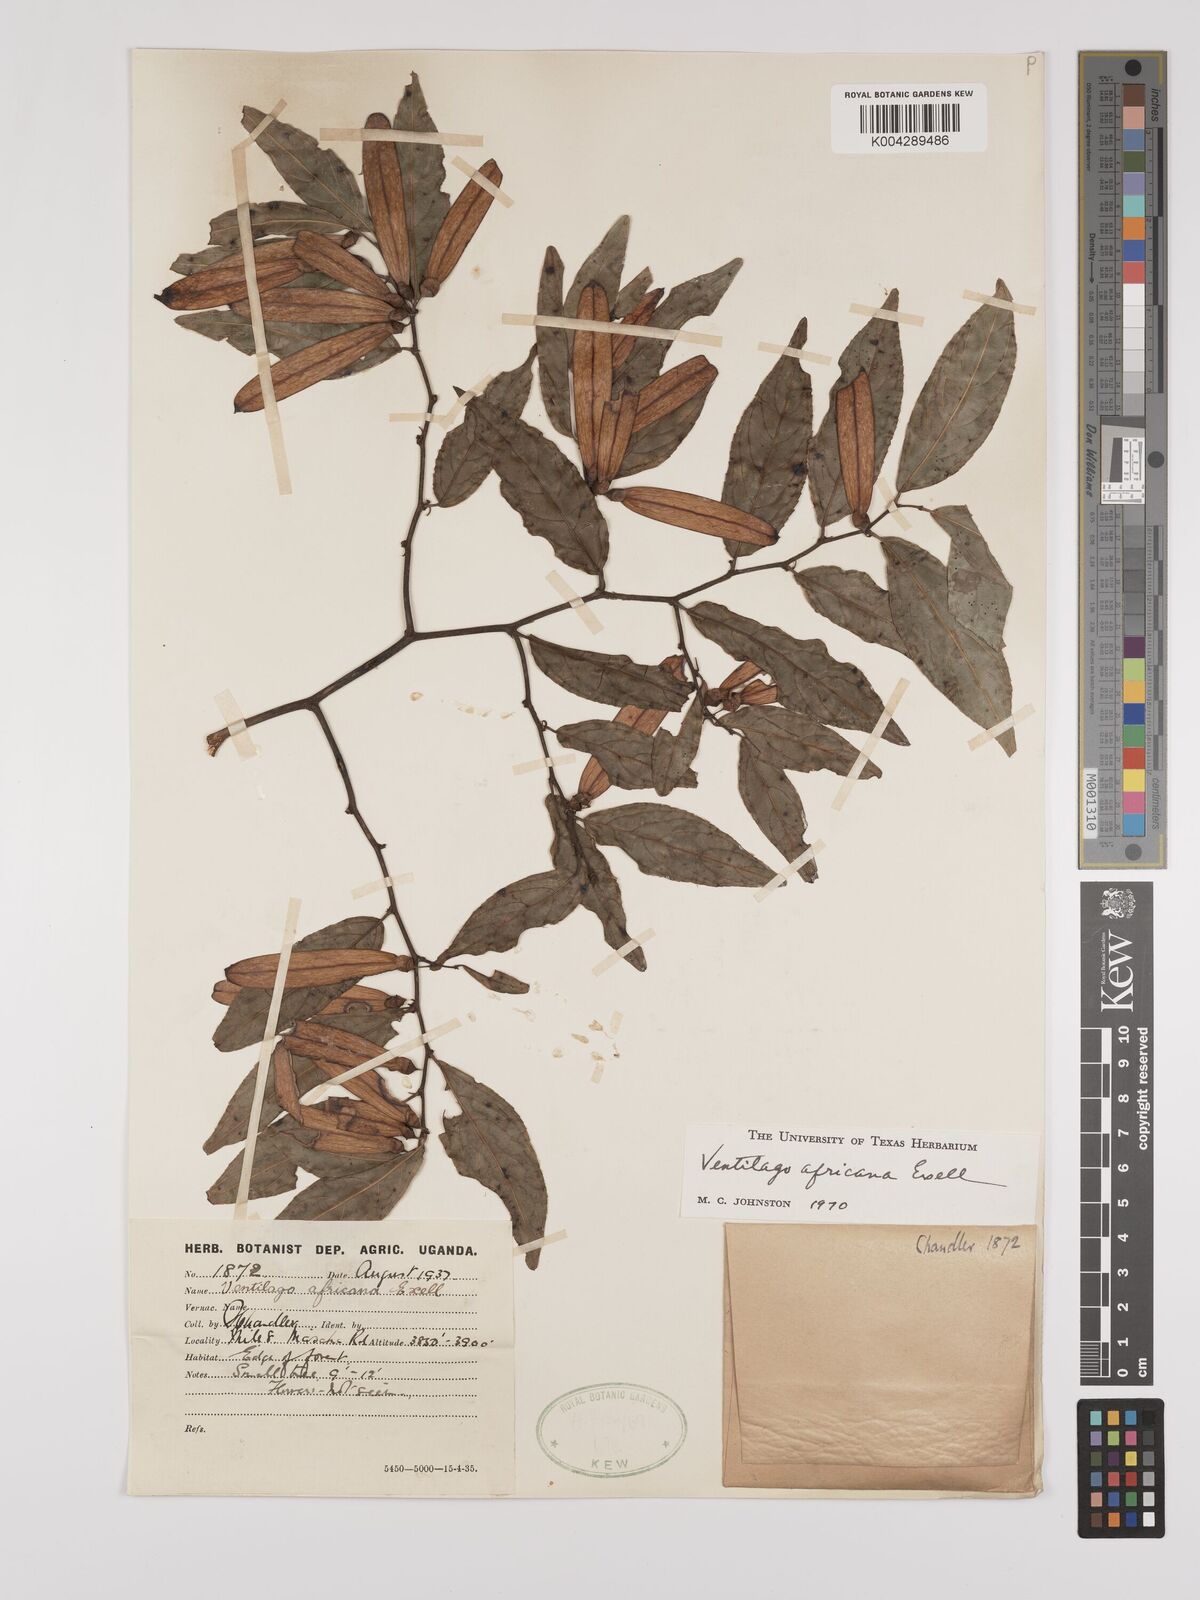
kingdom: Plantae
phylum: Tracheophyta
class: Magnoliopsida
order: Rosales
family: Rhamnaceae
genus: Ventilago
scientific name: Ventilago africana
